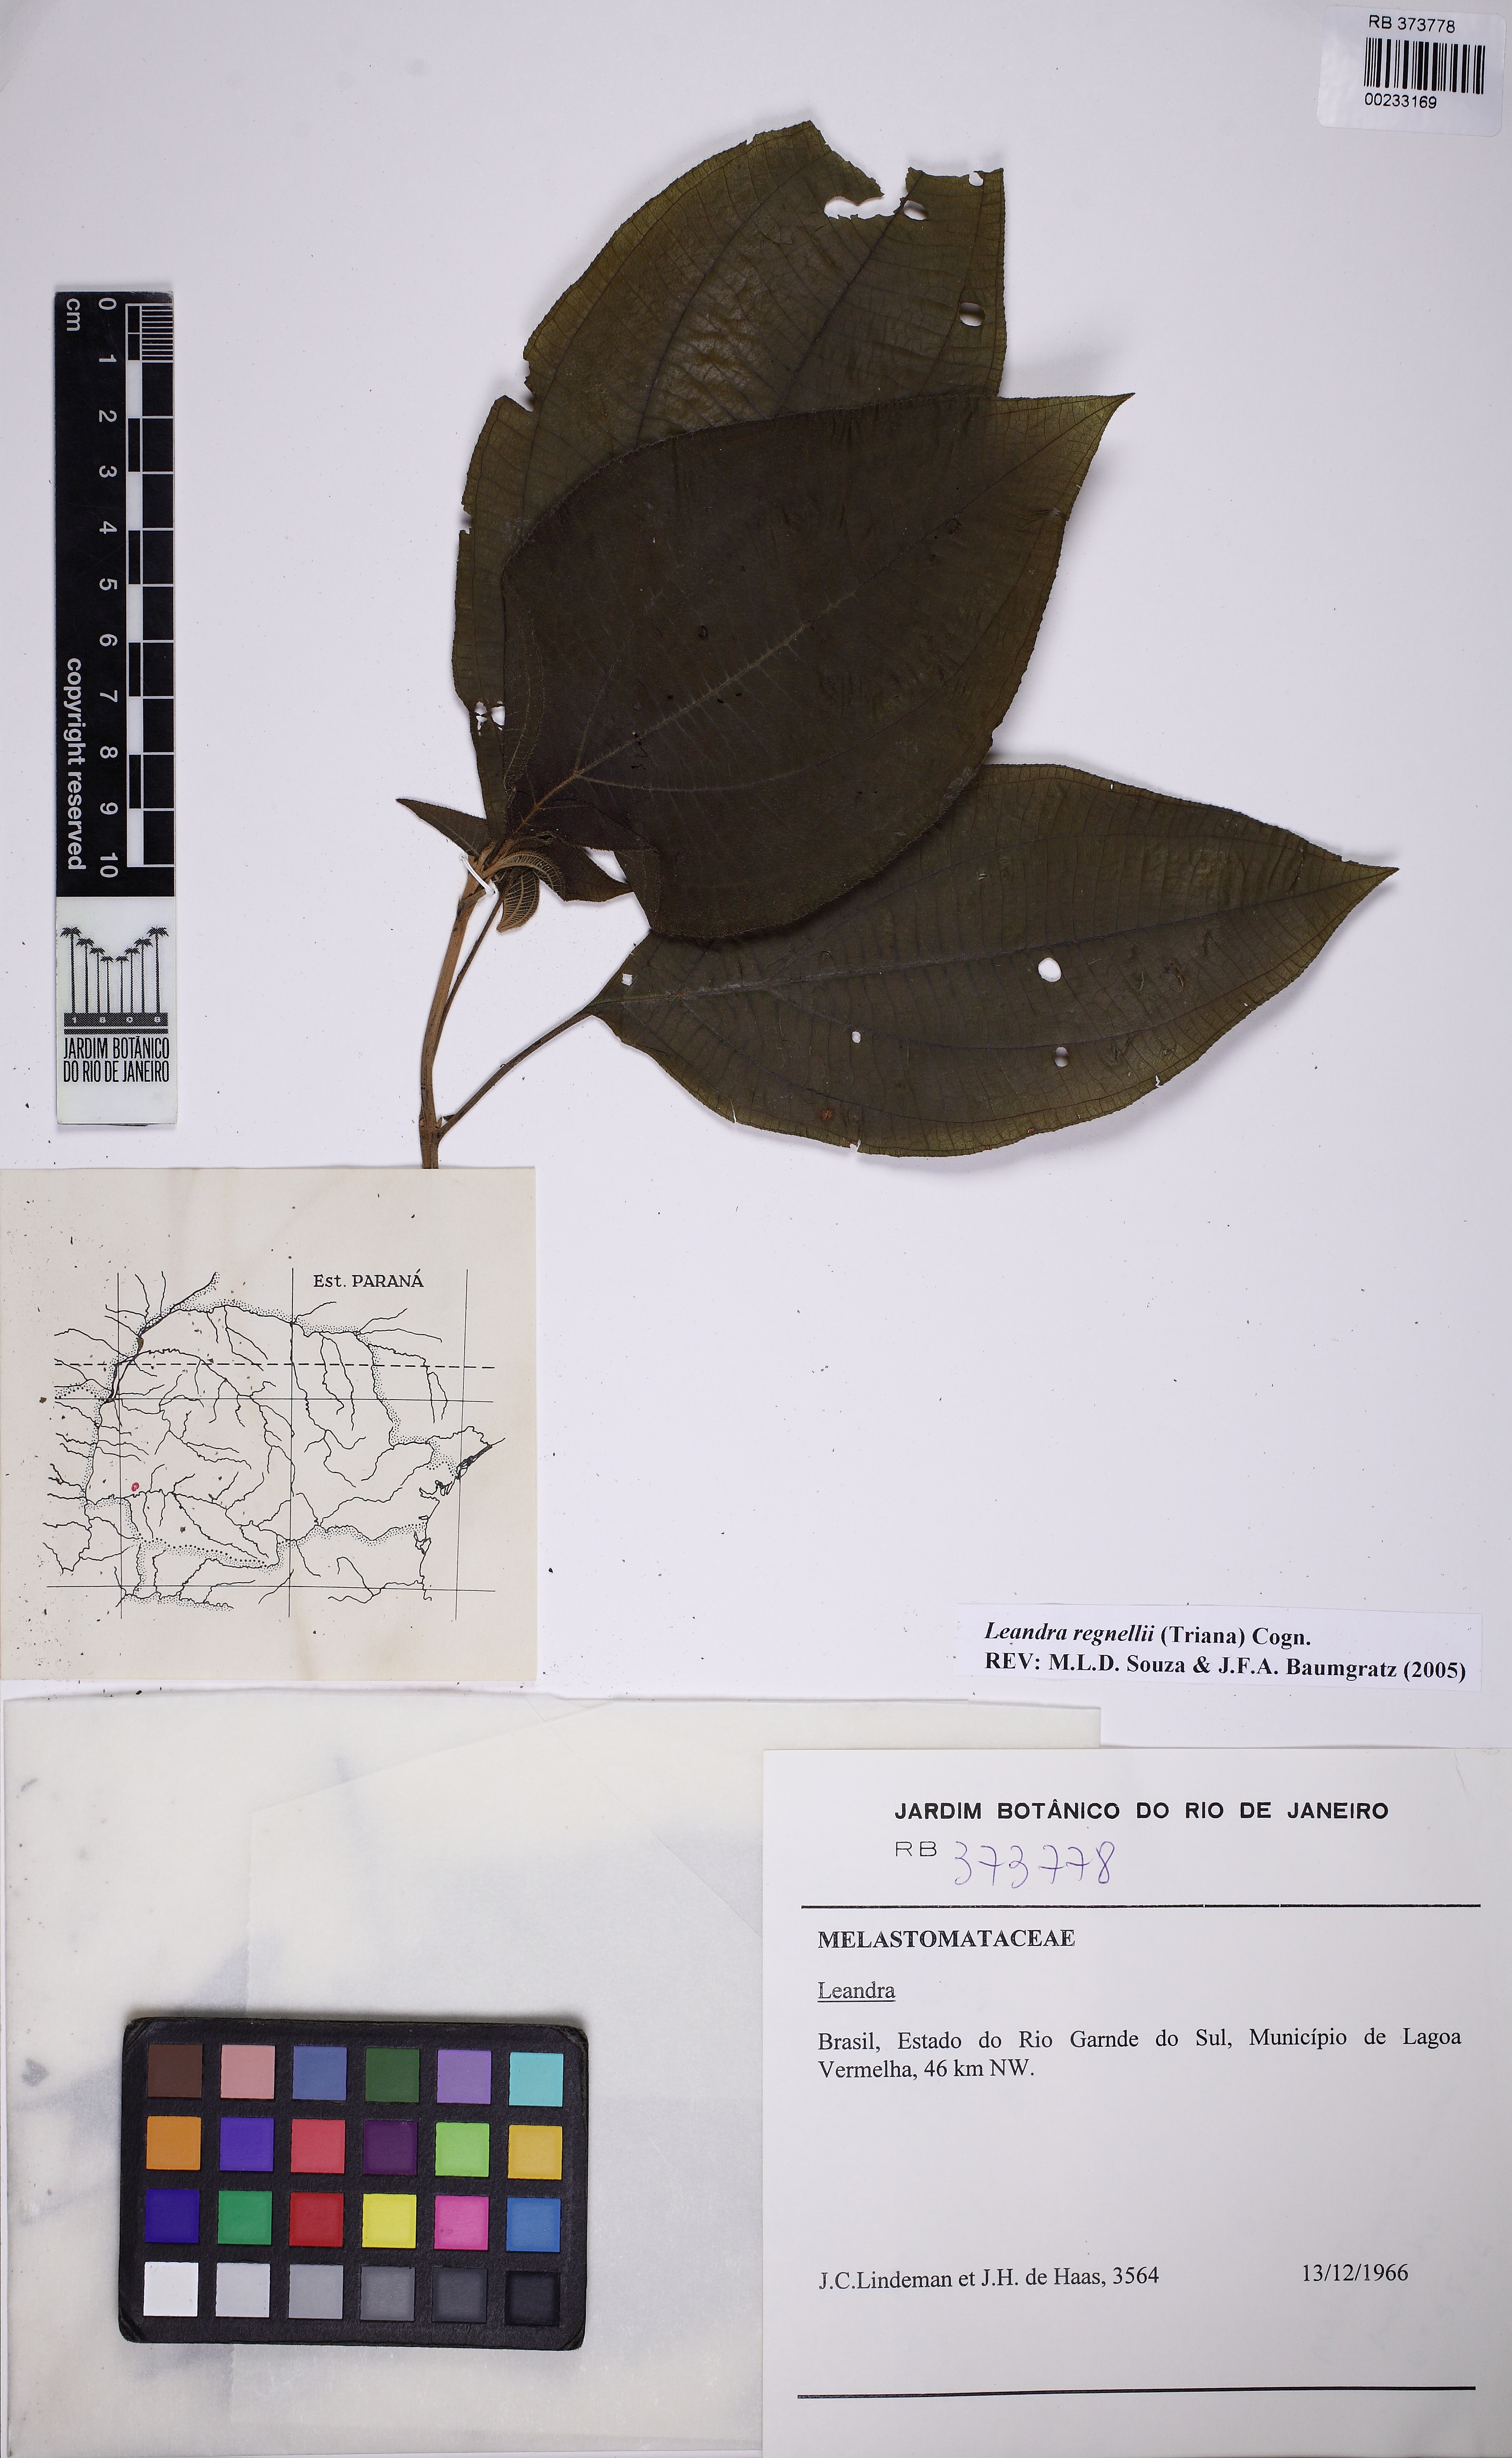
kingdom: Plantae
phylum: Tracheophyta
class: Magnoliopsida
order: Myrtales
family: Melastomataceae
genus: Miconia
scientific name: Miconia alterninervia
